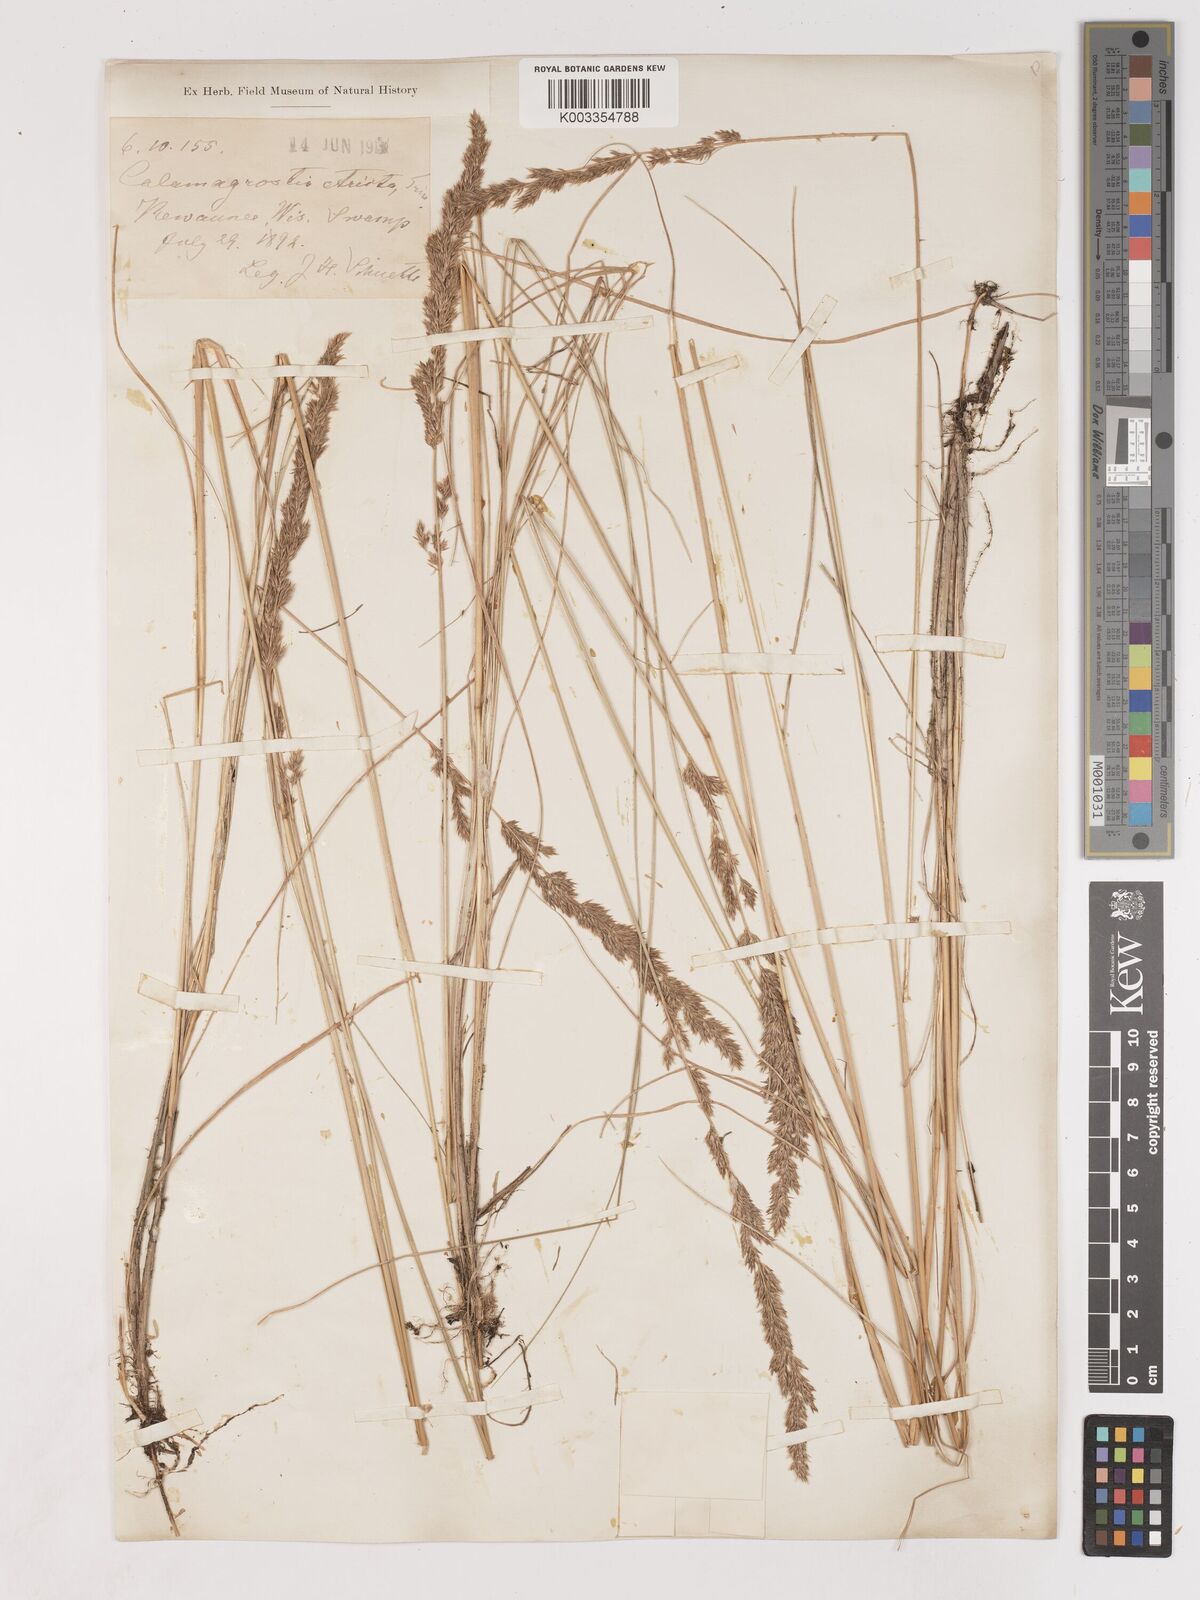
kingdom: Plantae
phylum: Tracheophyta
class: Liliopsida
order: Poales
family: Poaceae
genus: Cinnagrostis
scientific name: Cinnagrostis recta
